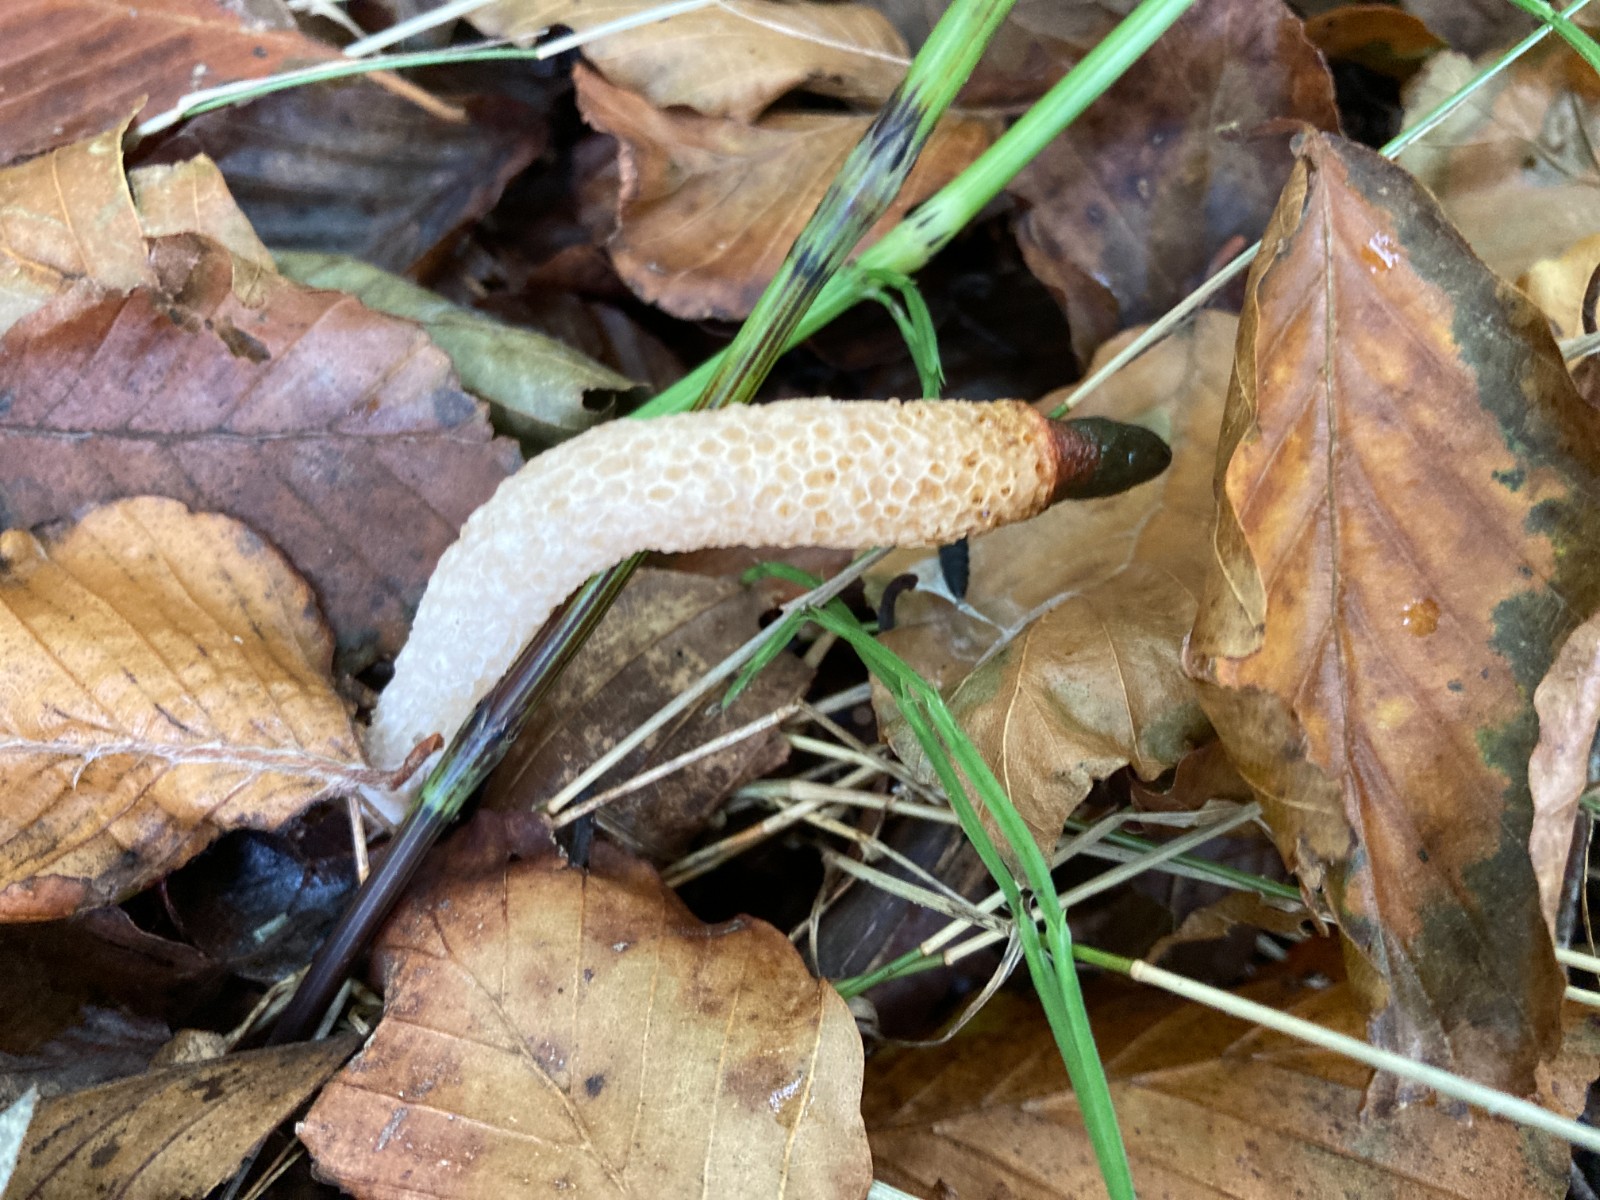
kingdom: Fungi
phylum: Basidiomycota
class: Agaricomycetes
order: Phallales
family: Phallaceae
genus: Mutinus
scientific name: Mutinus caninus
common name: hunde-stinksvamp
